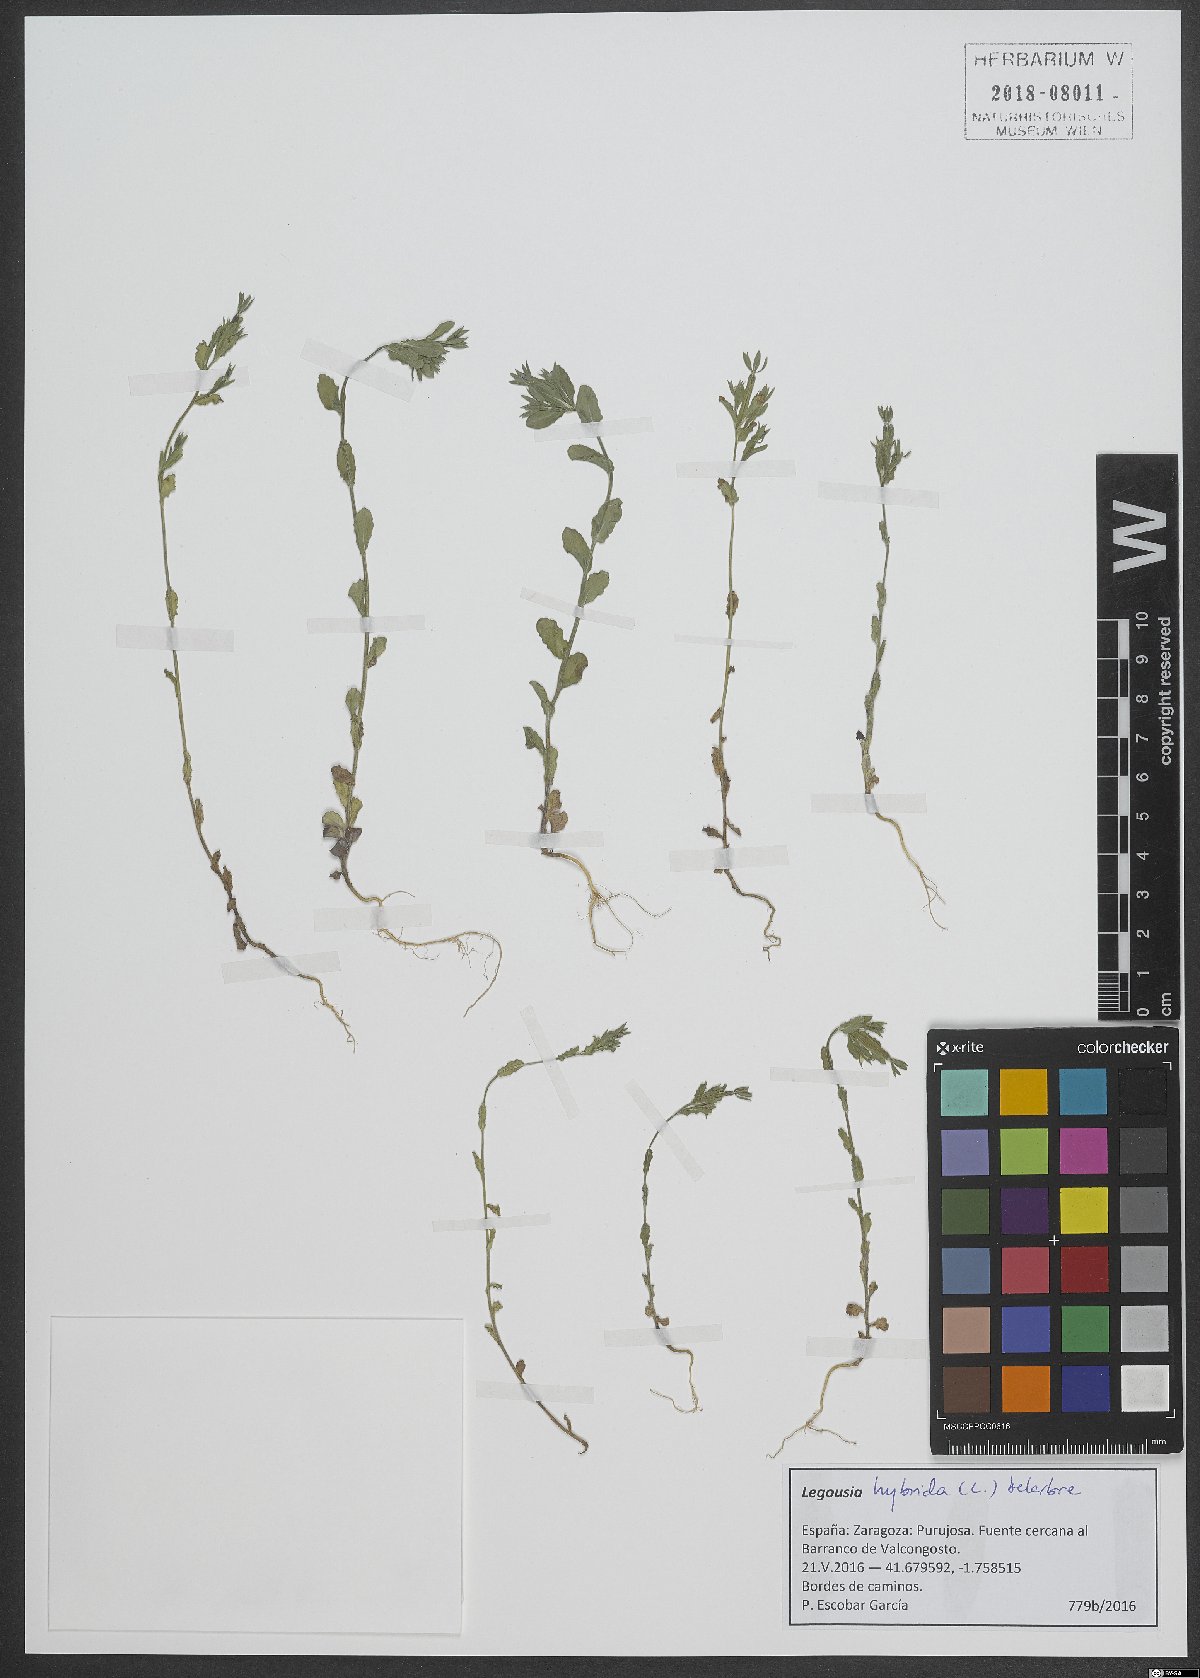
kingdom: Plantae
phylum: Tracheophyta
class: Magnoliopsida
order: Asterales
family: Campanulaceae
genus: Legousia
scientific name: Legousia hybrida
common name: Venus's-looking-glass
